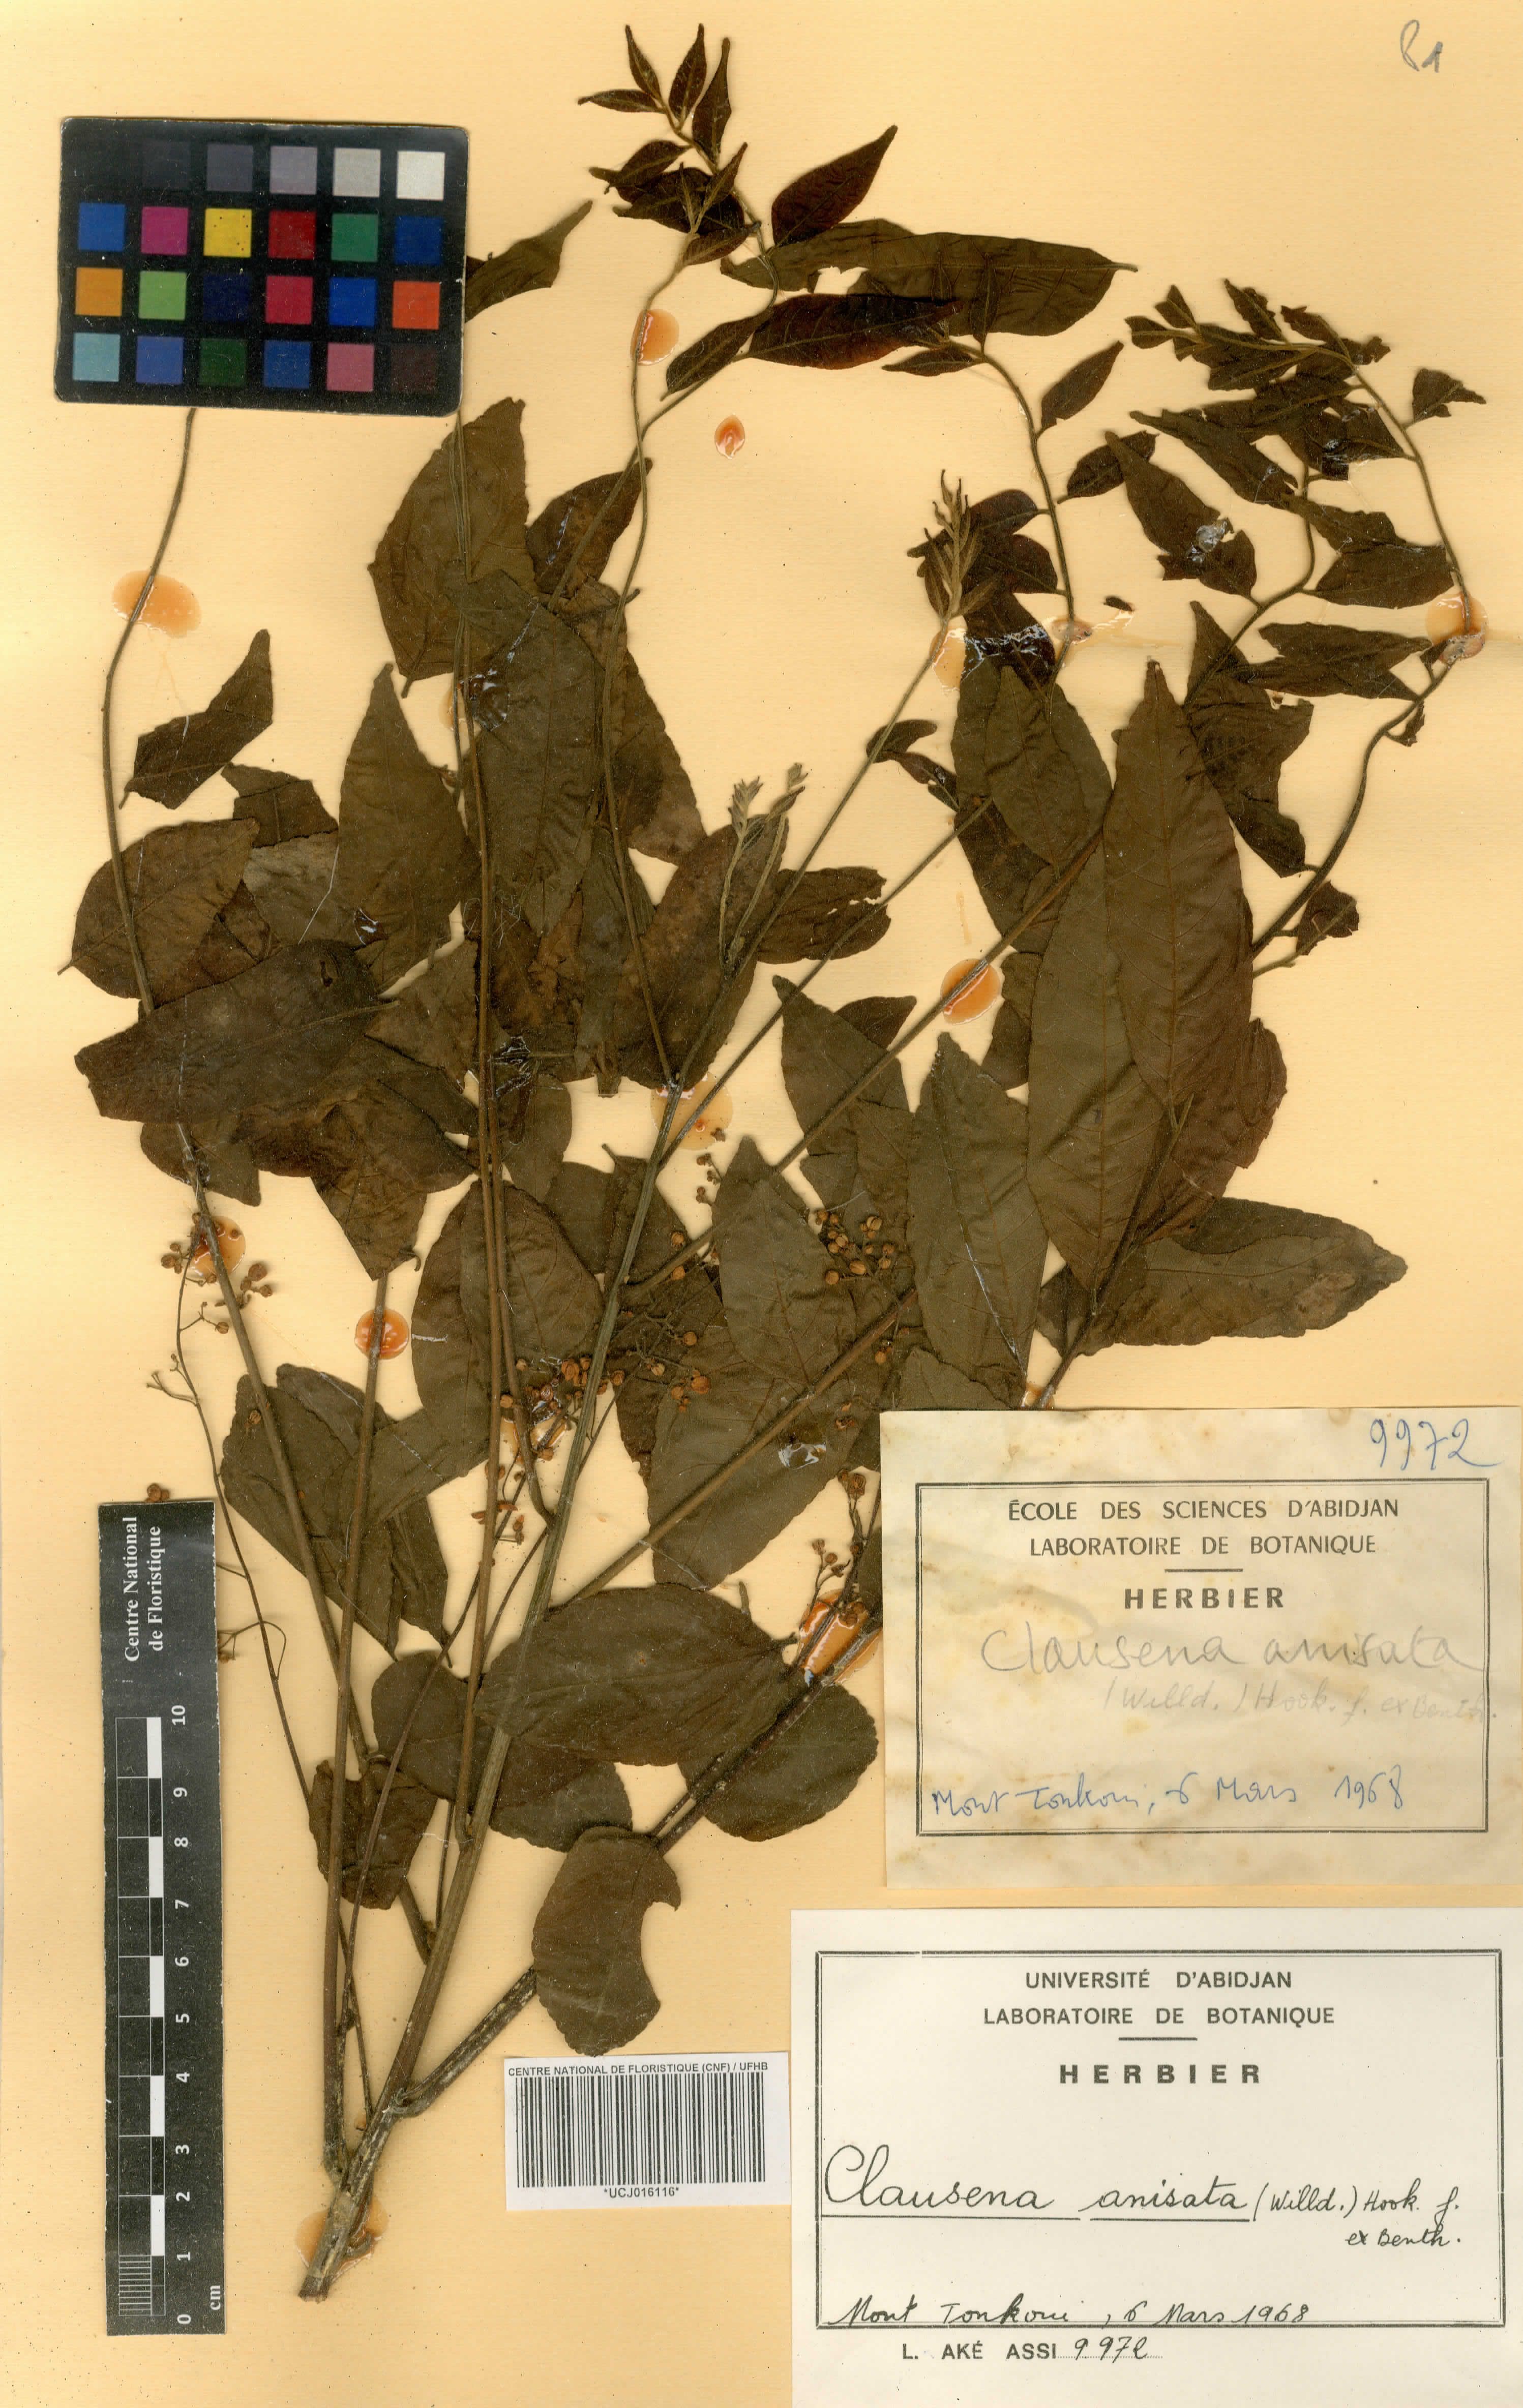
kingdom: Plantae
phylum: Tracheophyta
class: Magnoliopsida
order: Sapindales
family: Rutaceae
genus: Clausena
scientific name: Clausena anisata
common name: Horsewood
